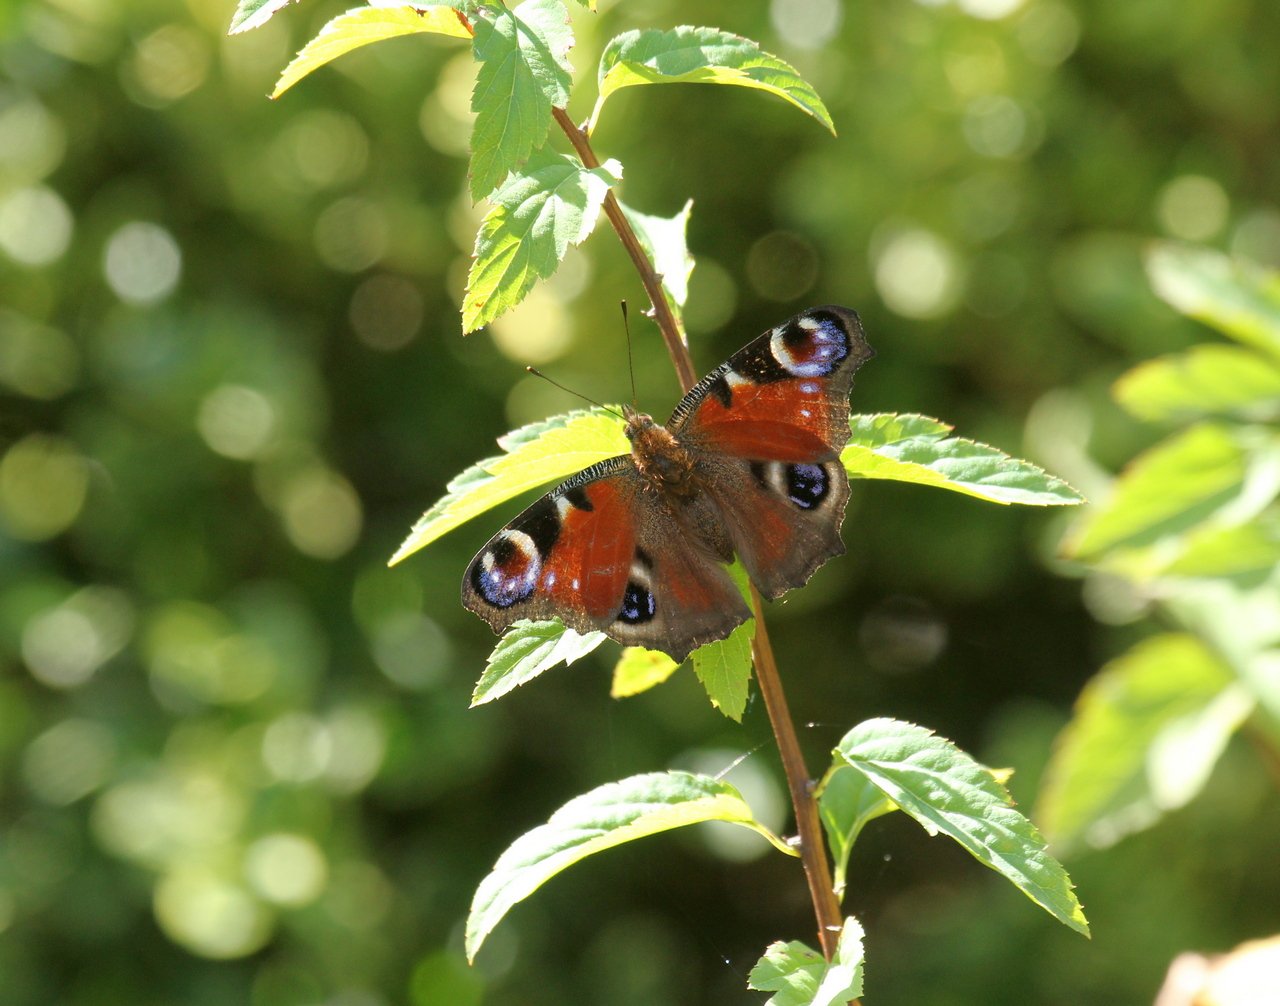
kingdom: Animalia
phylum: Arthropoda
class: Insecta
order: Lepidoptera
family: Nymphalidae
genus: Aglais
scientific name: Aglais io
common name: European Peacock
